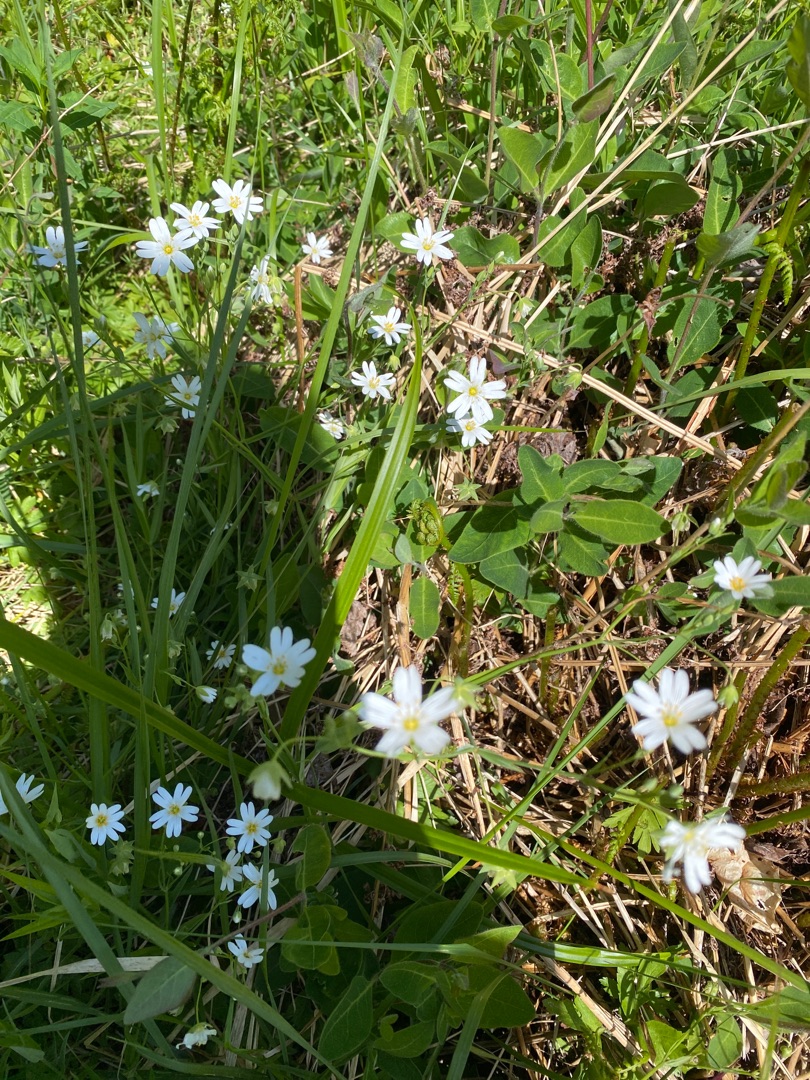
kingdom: Plantae
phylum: Tracheophyta
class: Magnoliopsida
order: Caryophyllales
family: Caryophyllaceae
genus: Rabelera
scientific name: Rabelera holostea
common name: Stor fladstjerne
